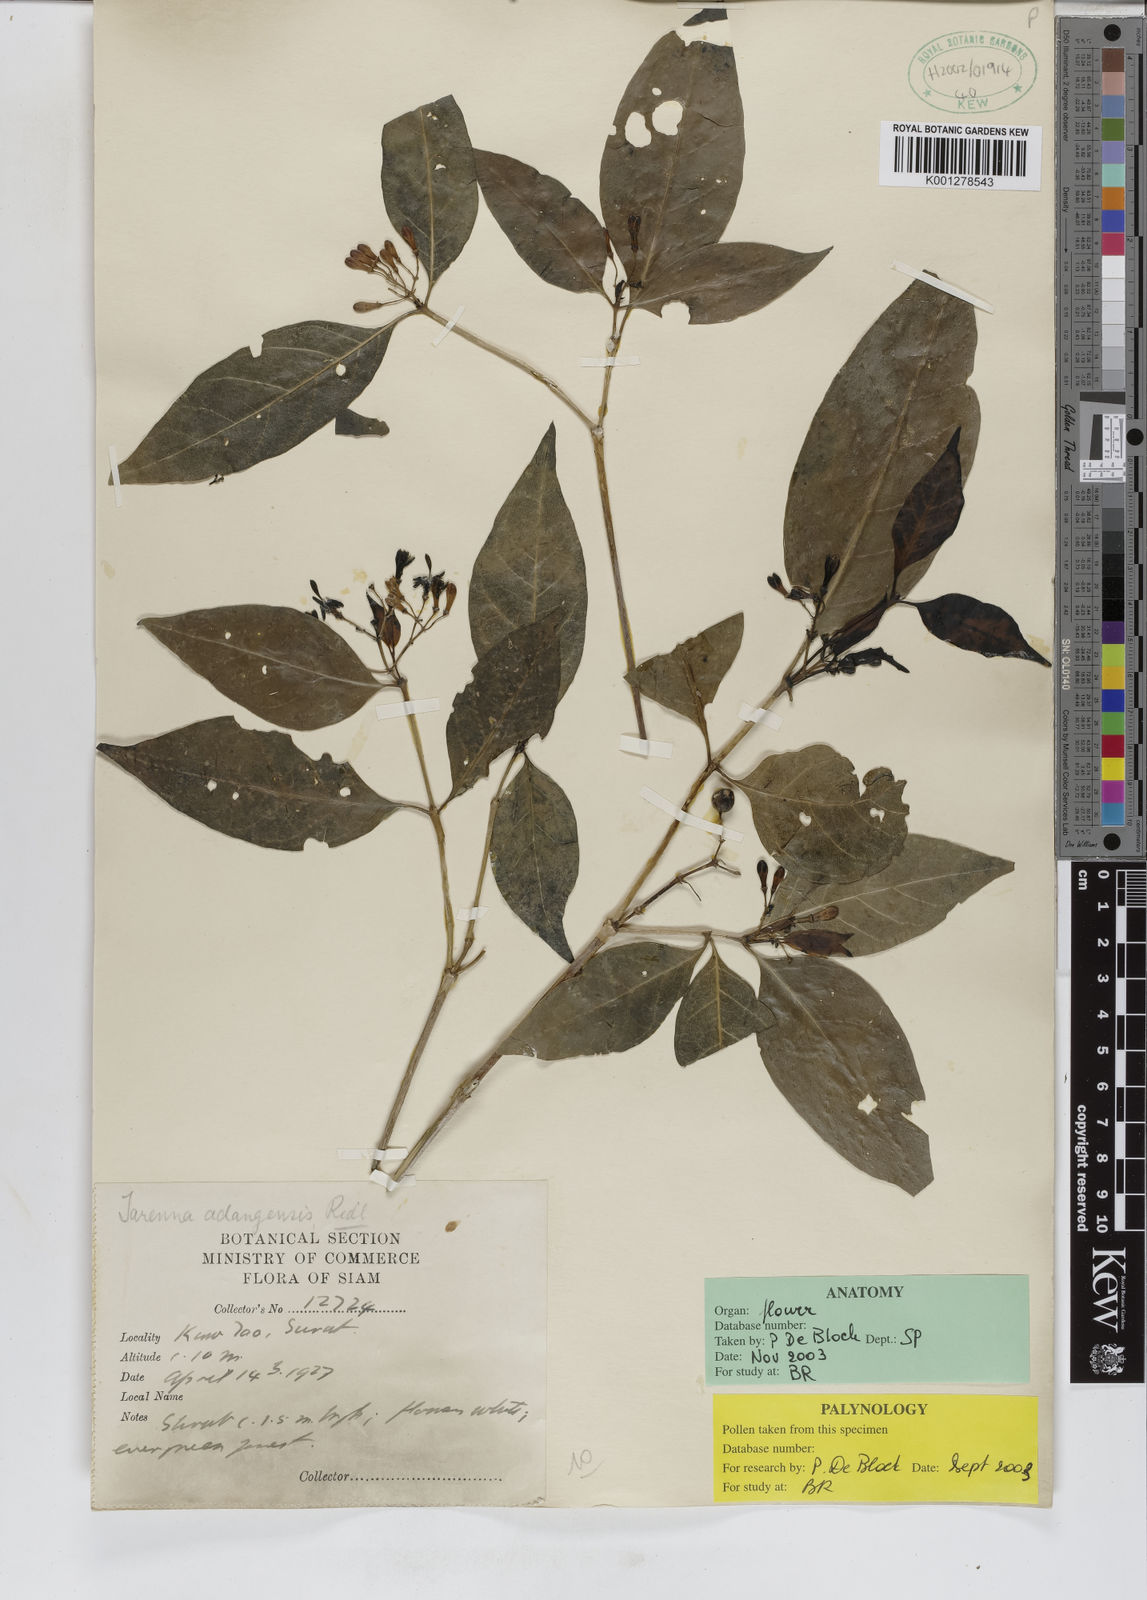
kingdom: Plantae
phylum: Tracheophyta
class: Magnoliopsida
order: Gentianales
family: Rubiaceae
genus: Tarenna
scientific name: Tarenna adangensis
